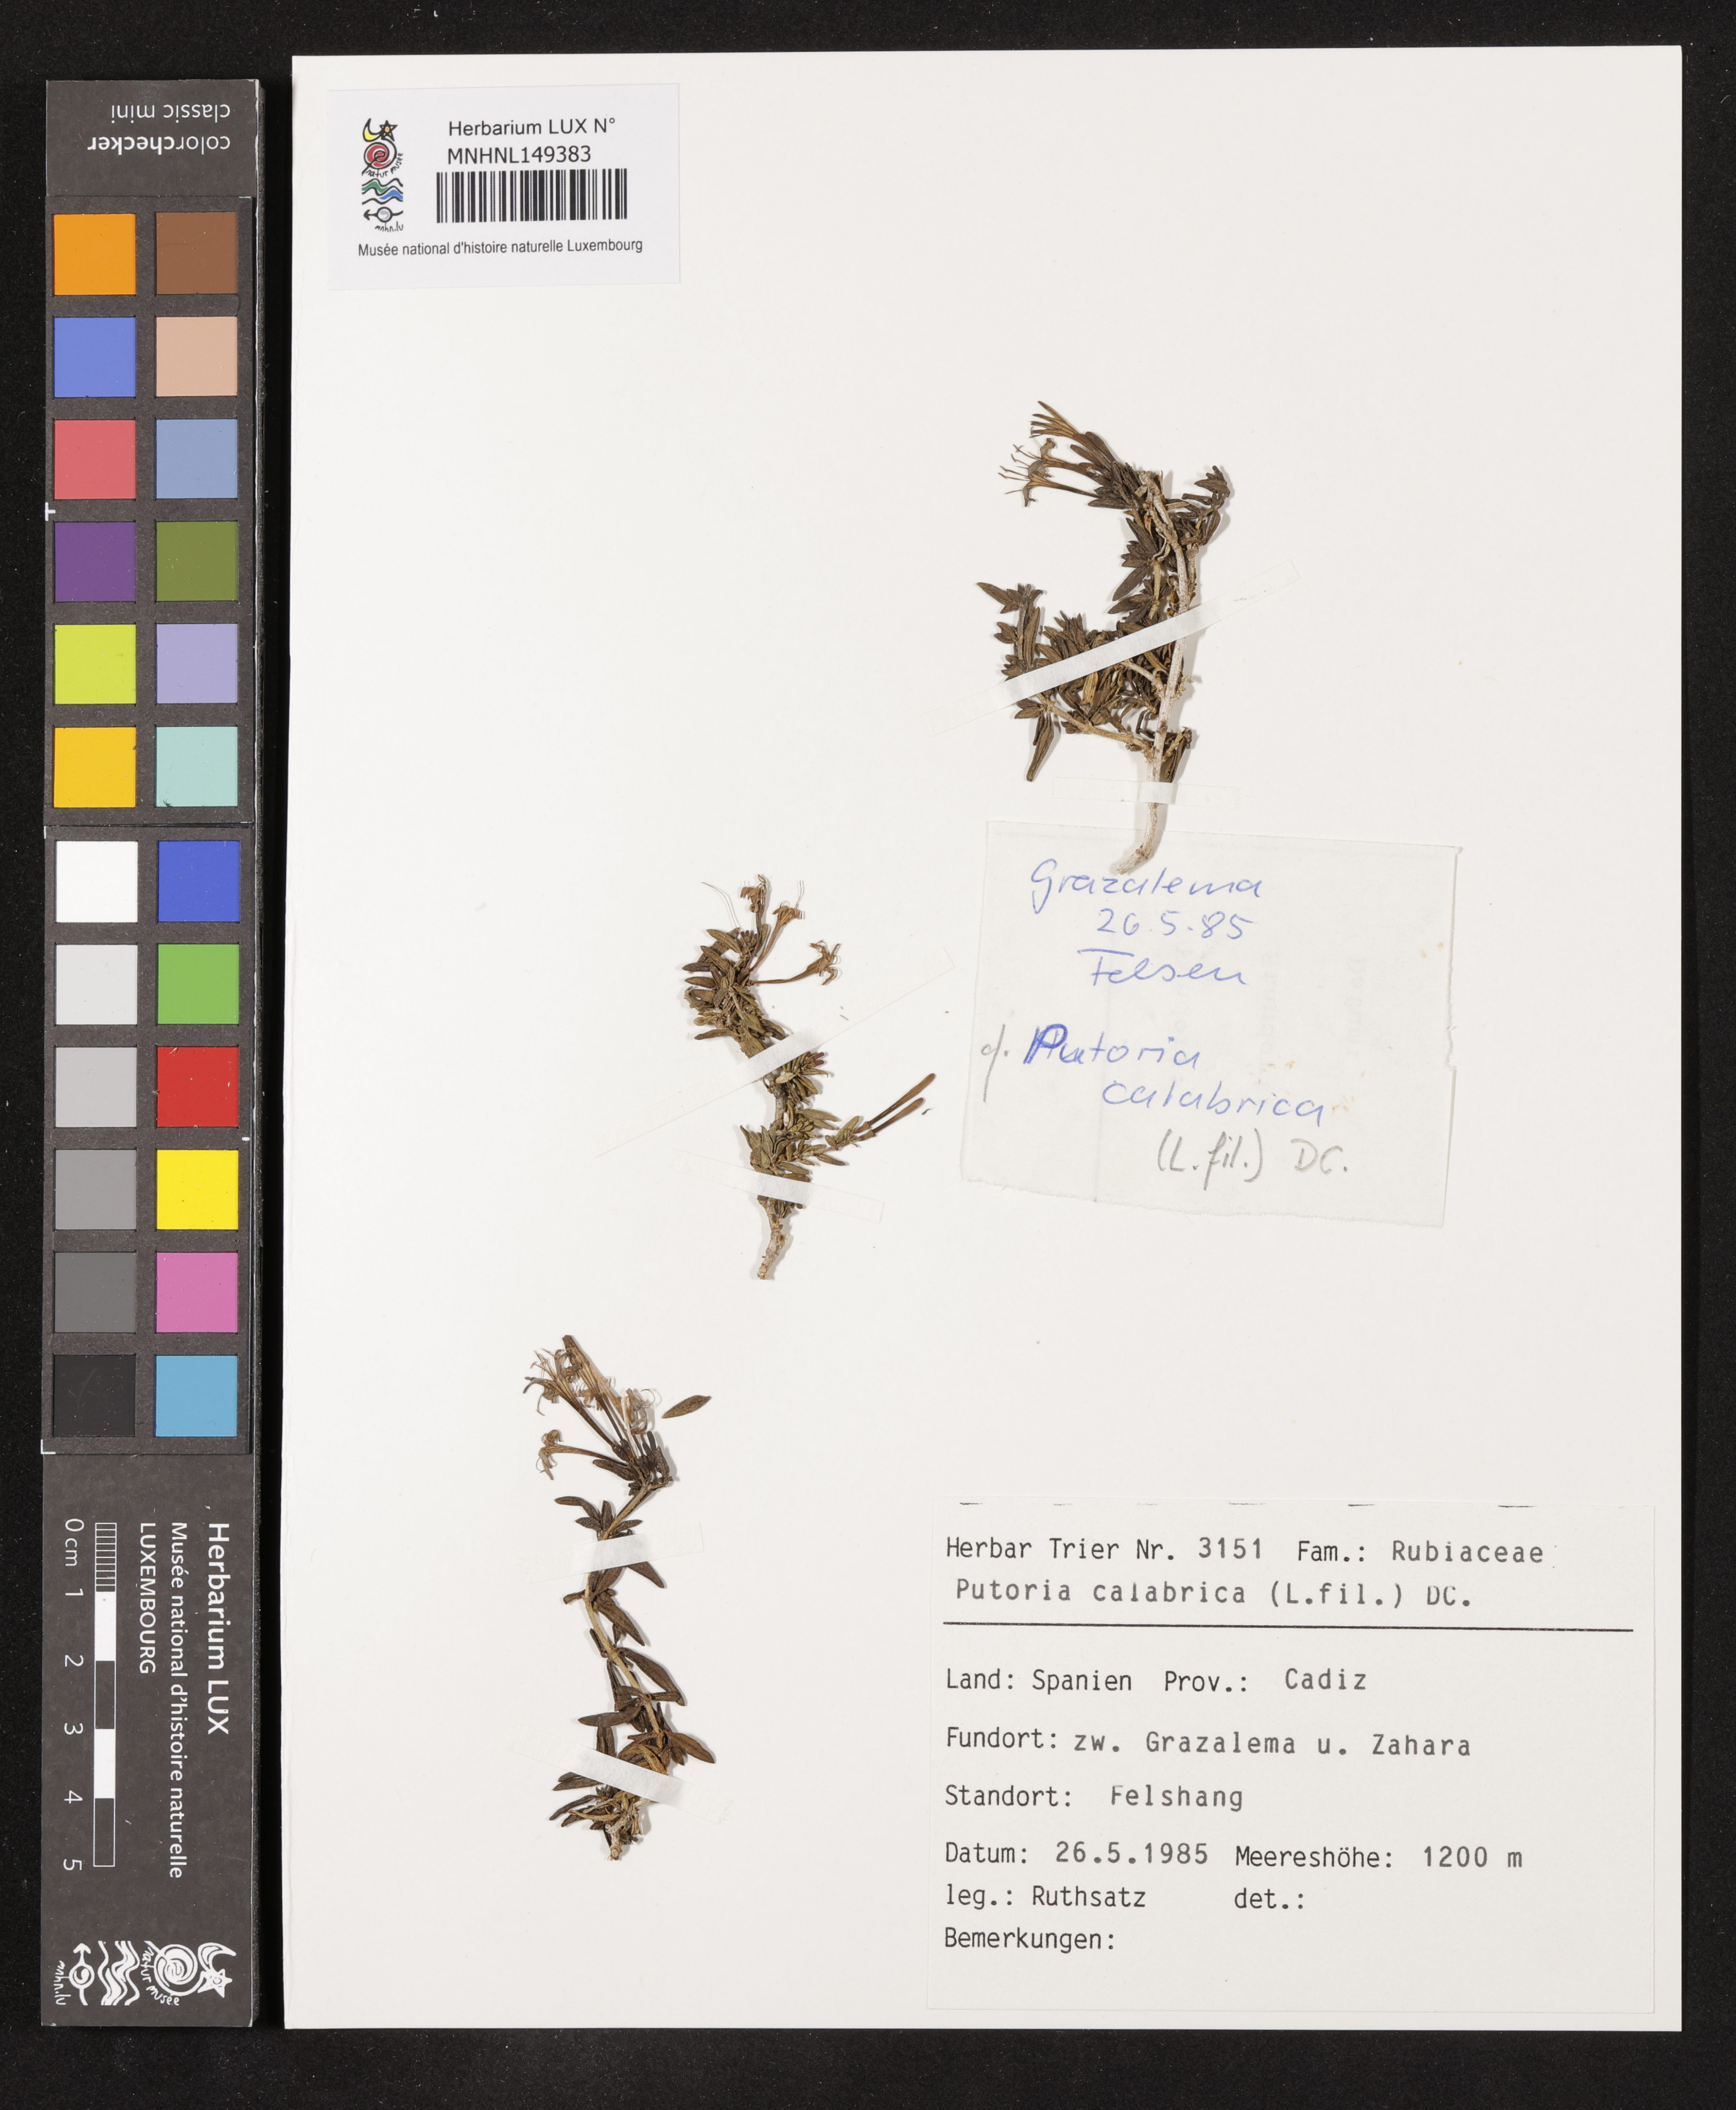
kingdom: Plantae
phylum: Tracheophyta
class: Magnoliopsida
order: Gentianales
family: Rubiaceae
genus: Plocama
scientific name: Plocama calabrica
